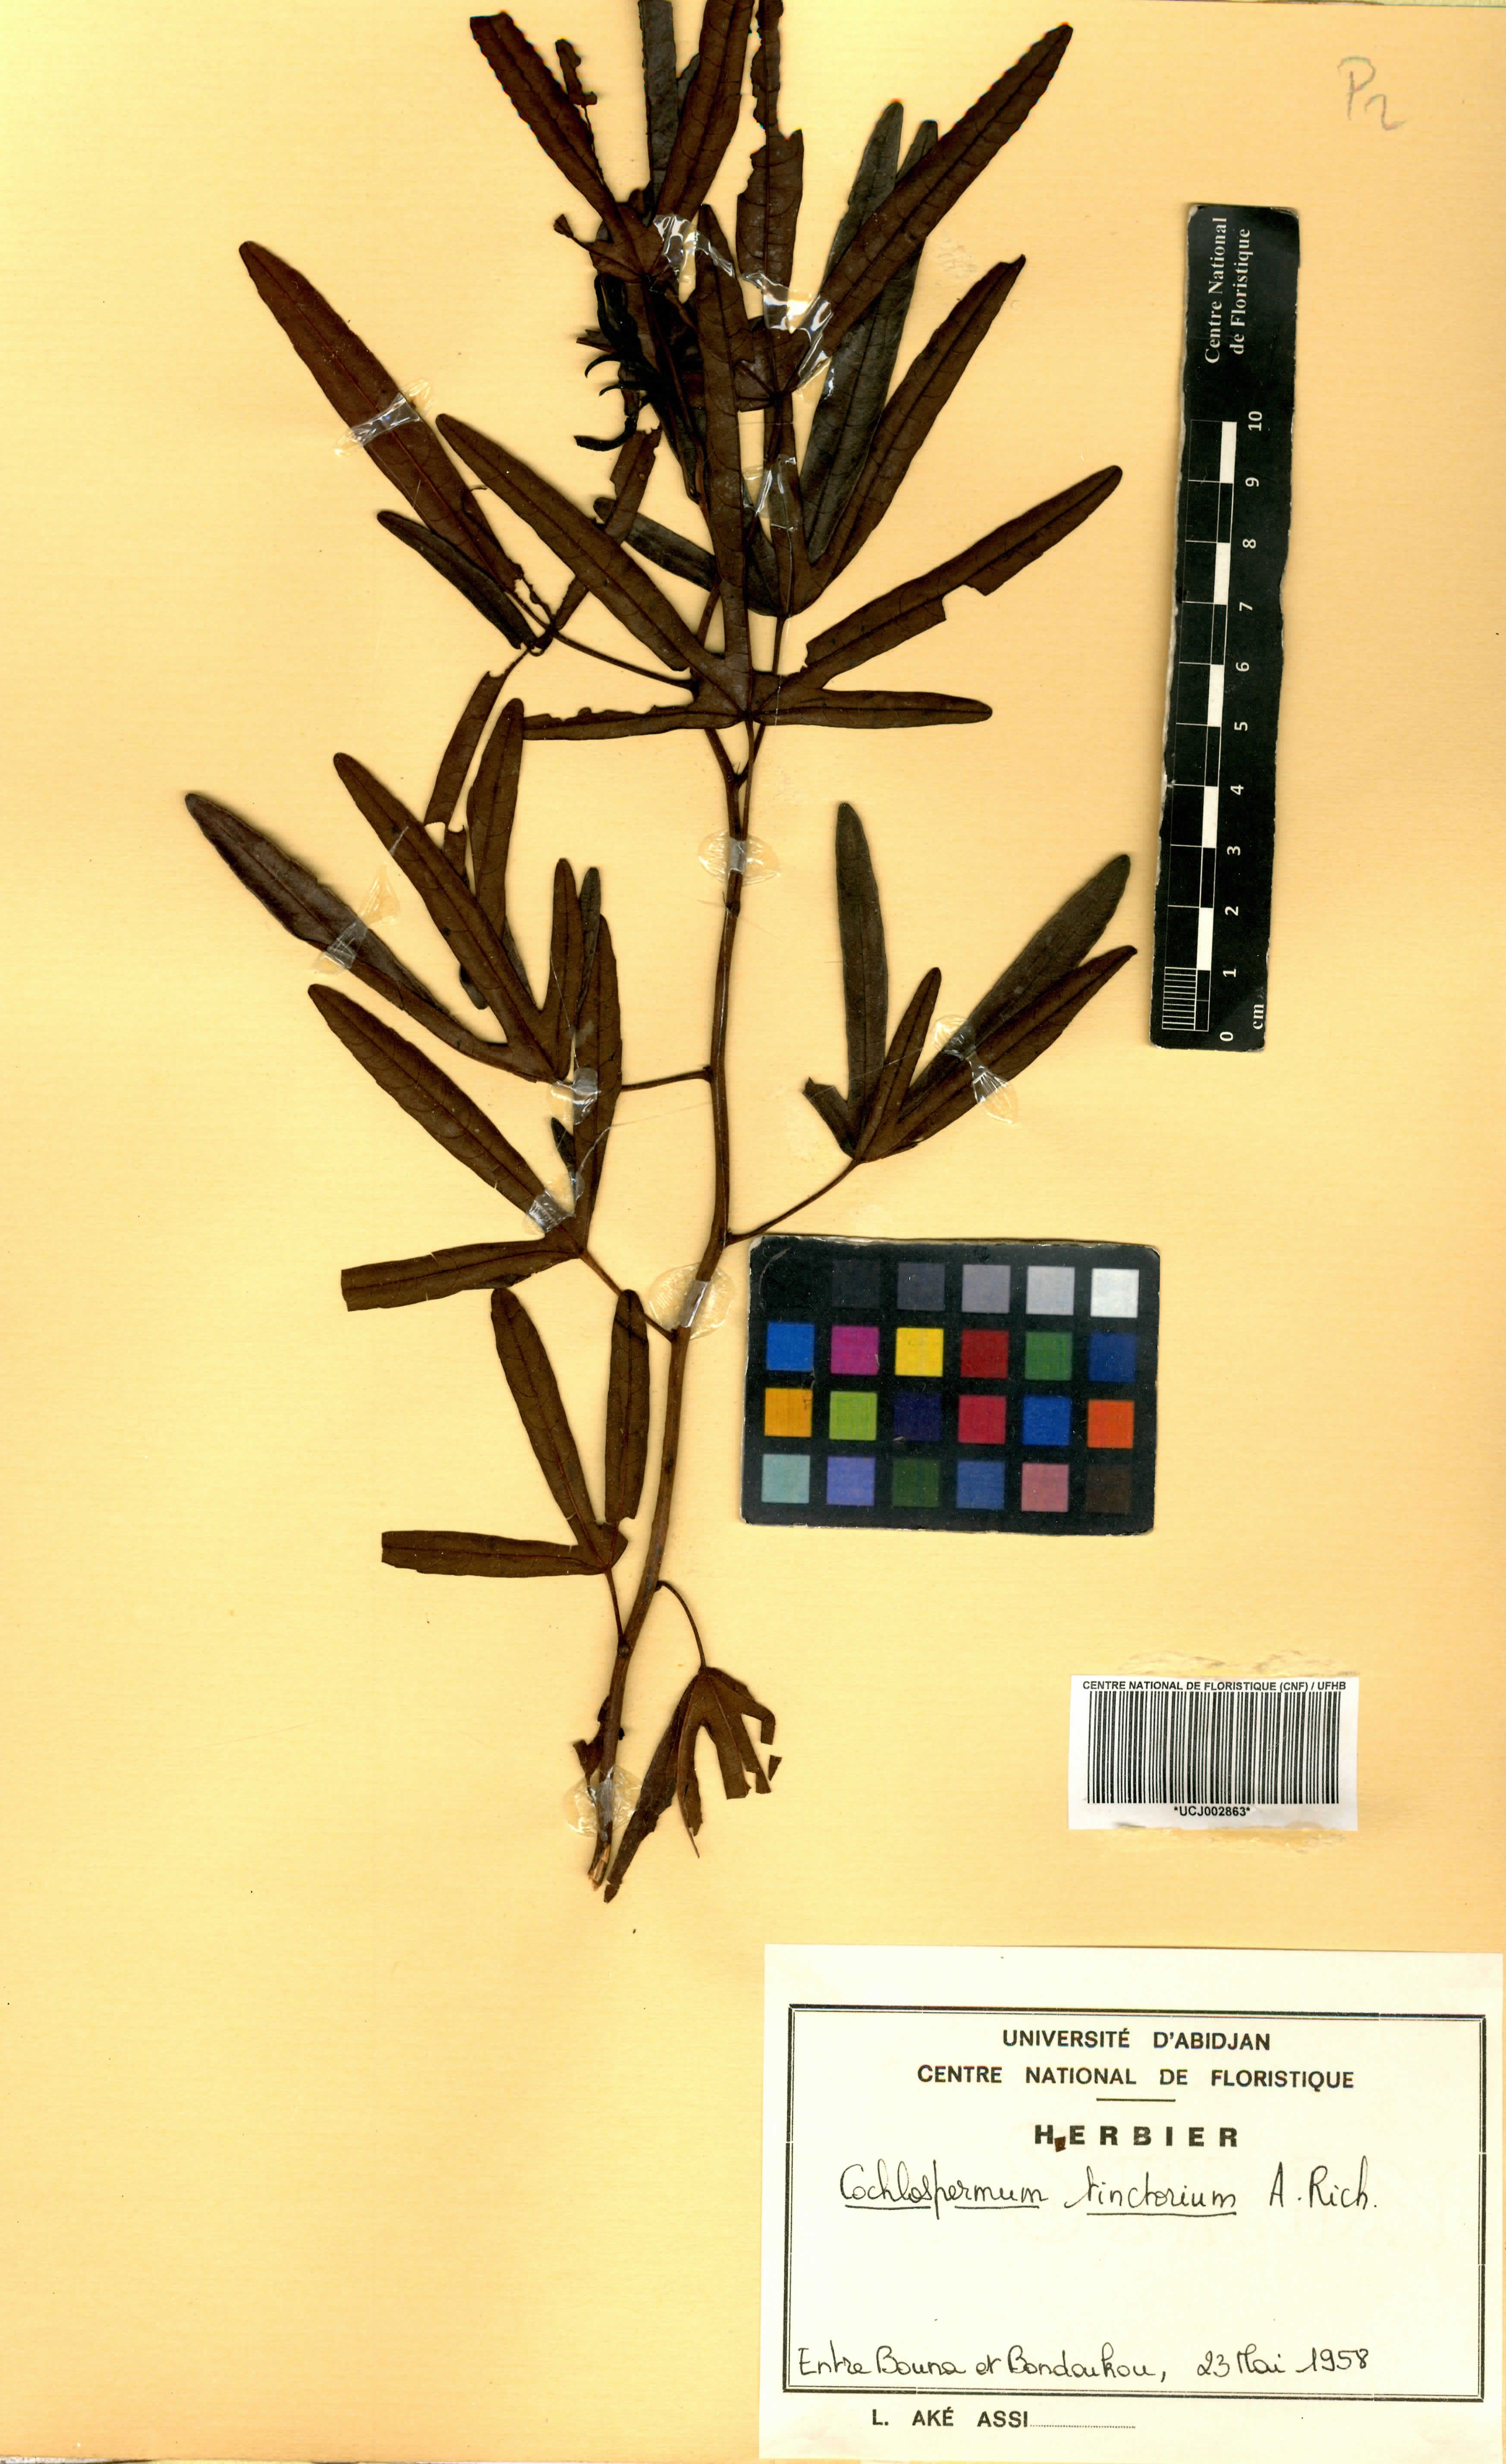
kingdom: Plantae
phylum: Tracheophyta
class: Magnoliopsida
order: Malvales
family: Cochlospermaceae
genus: Cochlospermum
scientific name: Cochlospermum tinctorium
